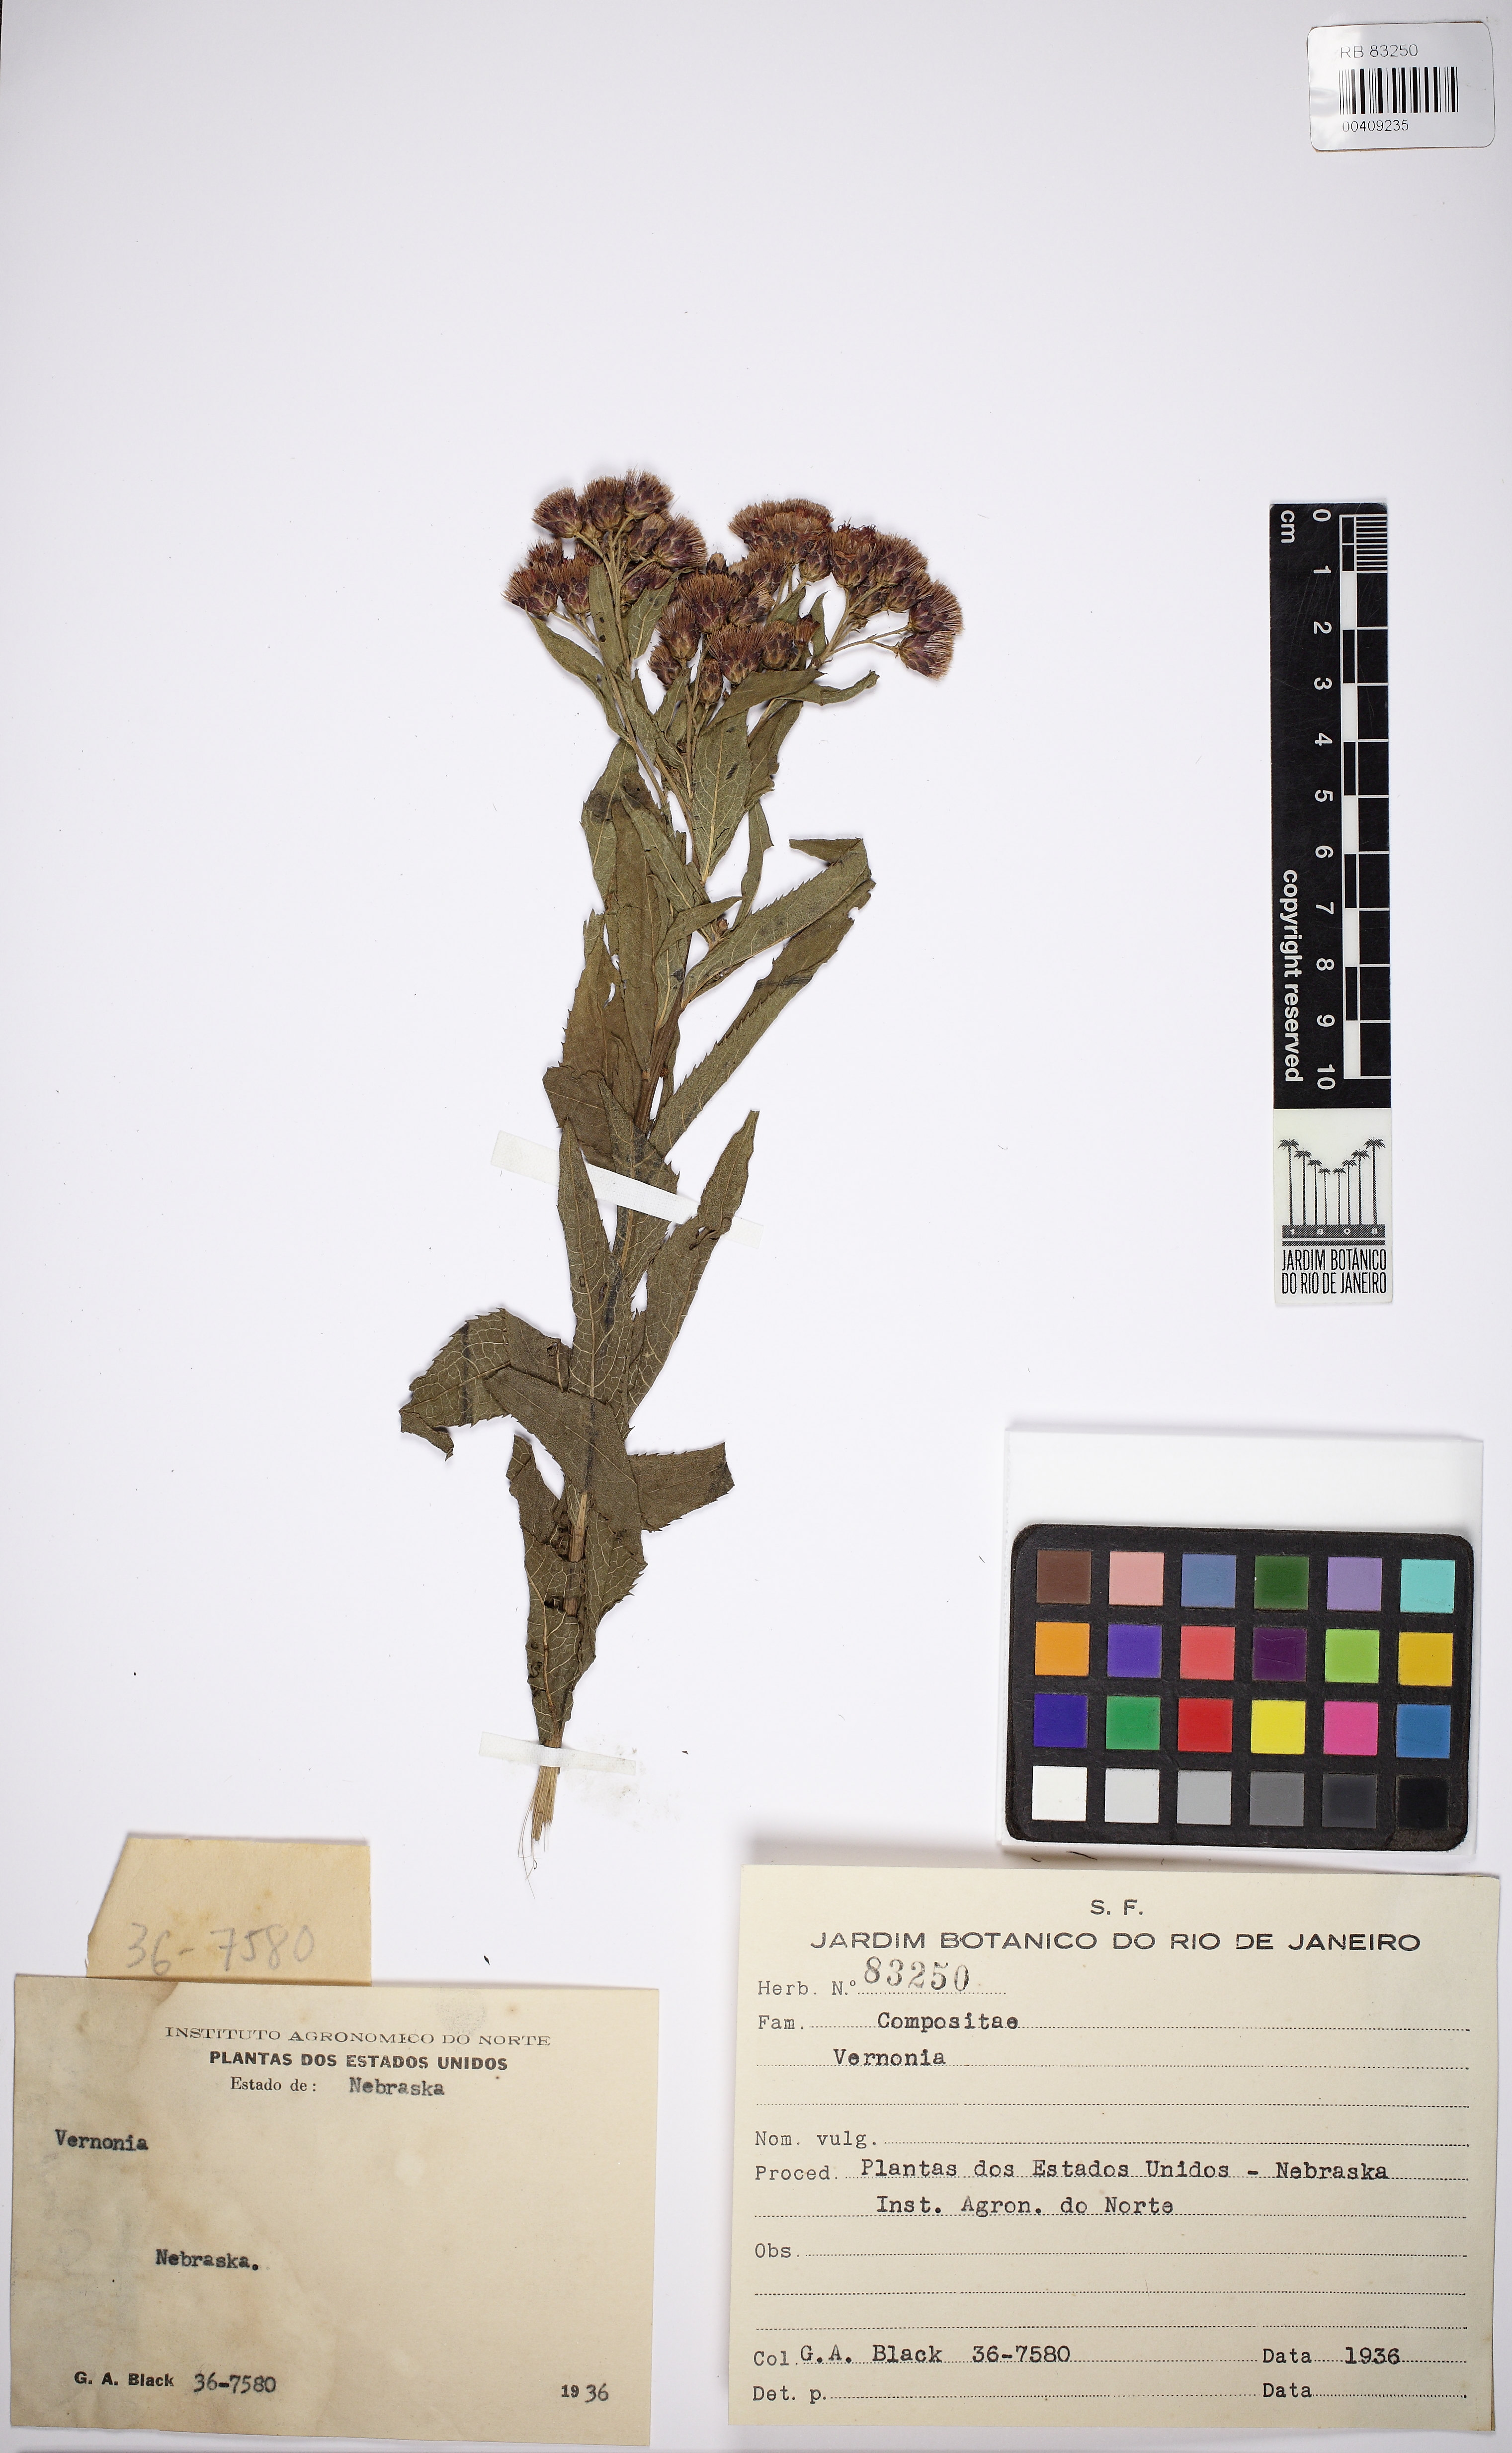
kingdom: Plantae
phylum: Tracheophyta
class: Magnoliopsida
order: Asterales
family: Asteraceae
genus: Vernonia
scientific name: Vernonia
